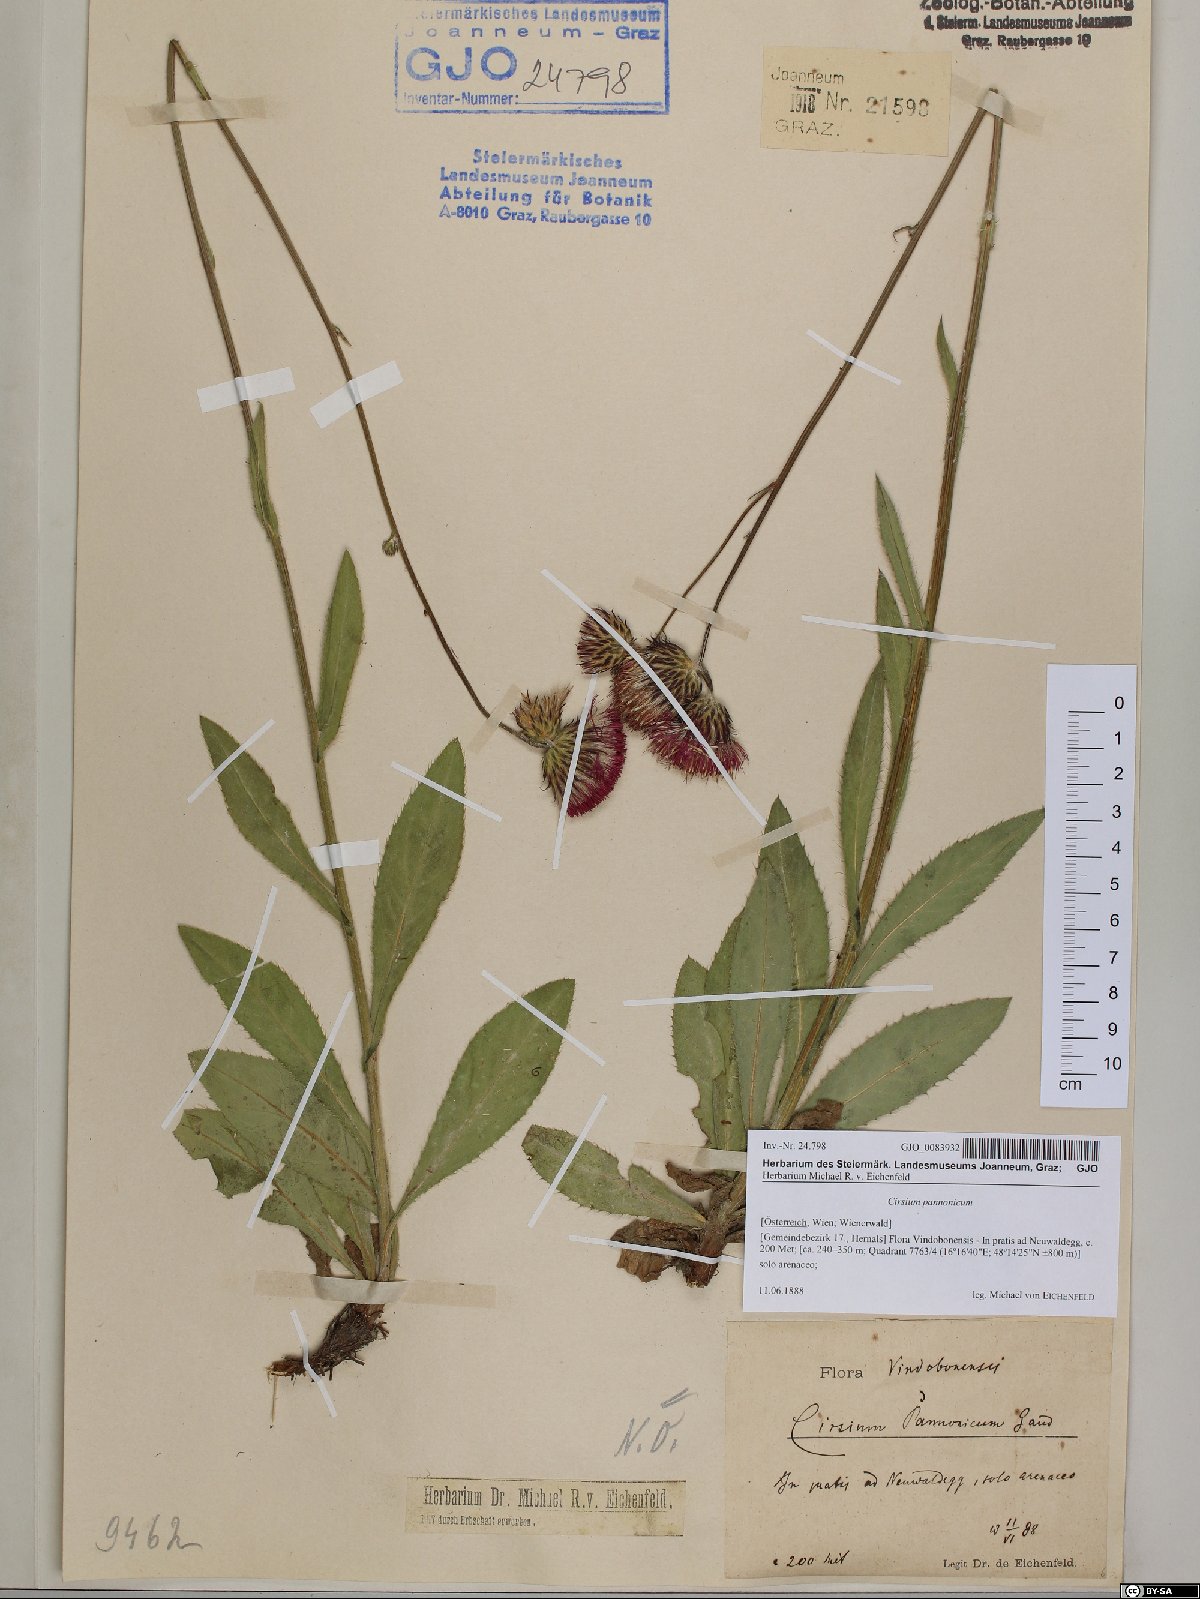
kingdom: Plantae
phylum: Tracheophyta
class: Magnoliopsida
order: Asterales
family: Asteraceae
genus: Cirsium
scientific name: Cirsium pannonicum
